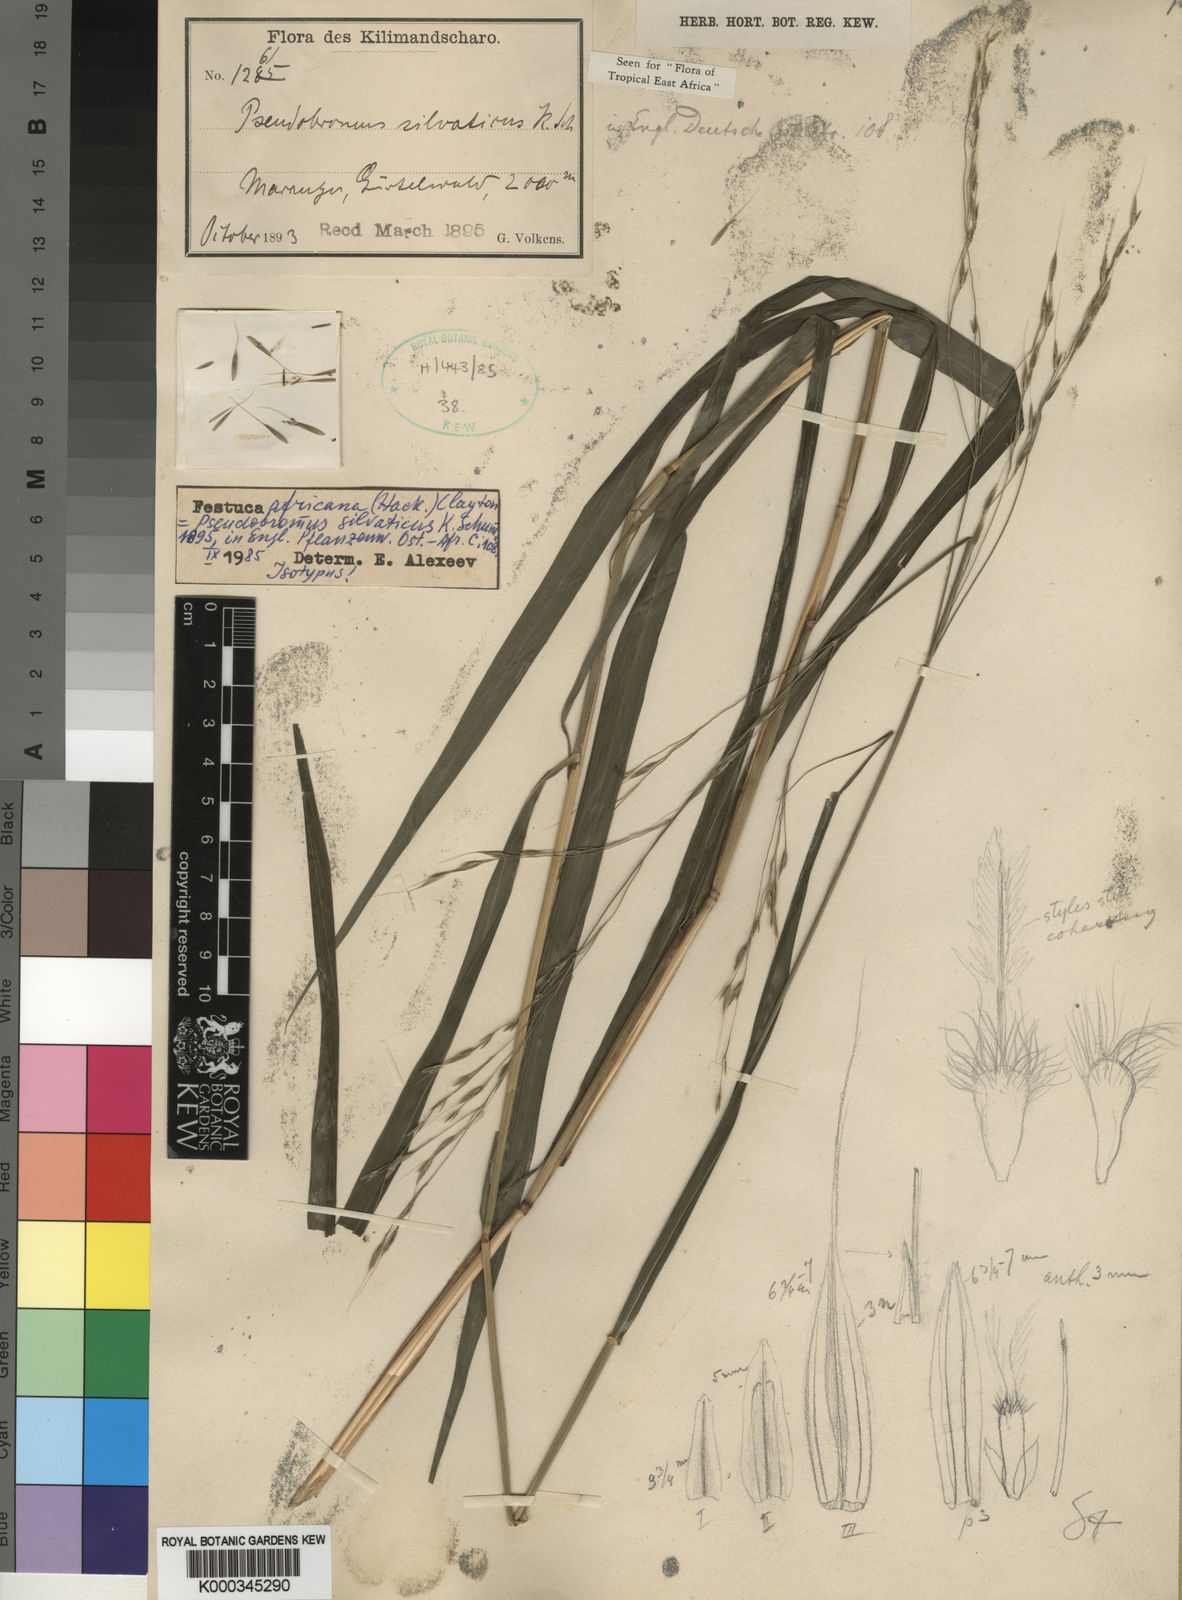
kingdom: Plantae
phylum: Tracheophyta
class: Liliopsida
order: Poales
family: Poaceae
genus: Pseudobromus
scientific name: Pseudobromus africanus
